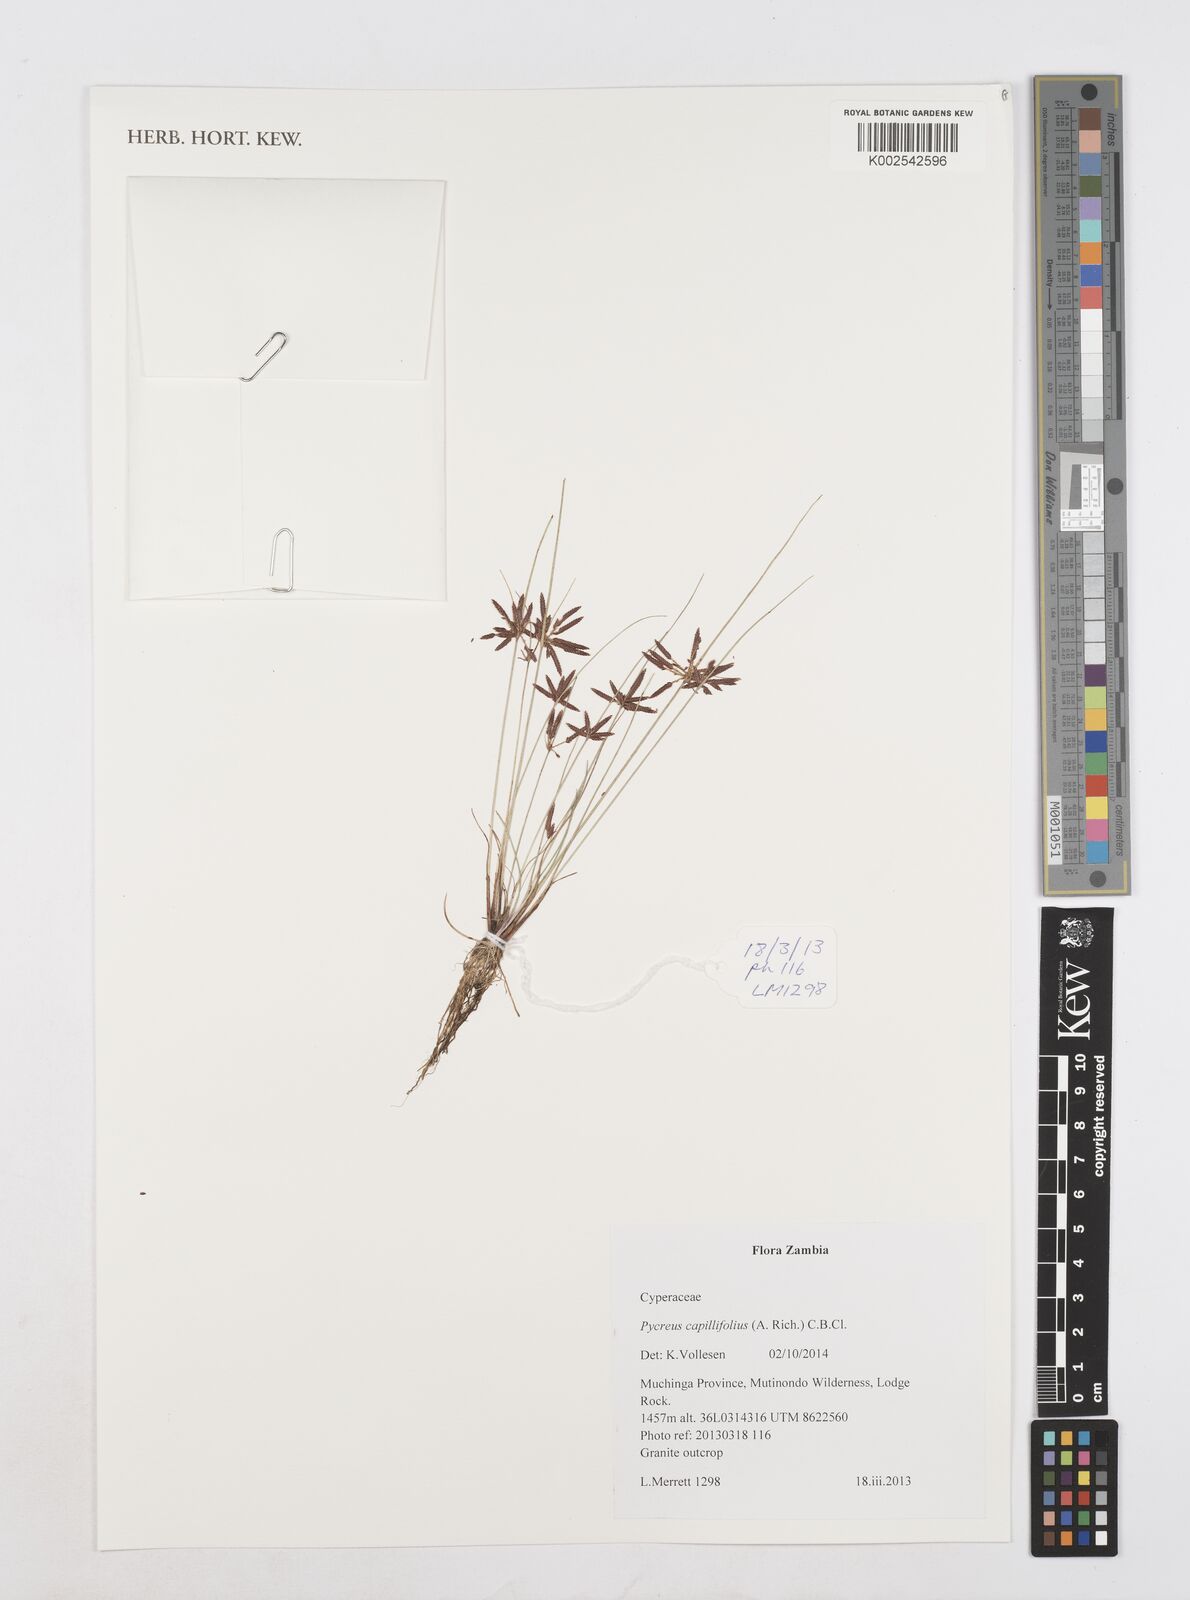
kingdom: Plantae
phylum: Tracheophyta
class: Liliopsida
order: Poales
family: Cyperaceae
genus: Cyperus
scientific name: Cyperus capillifolius
